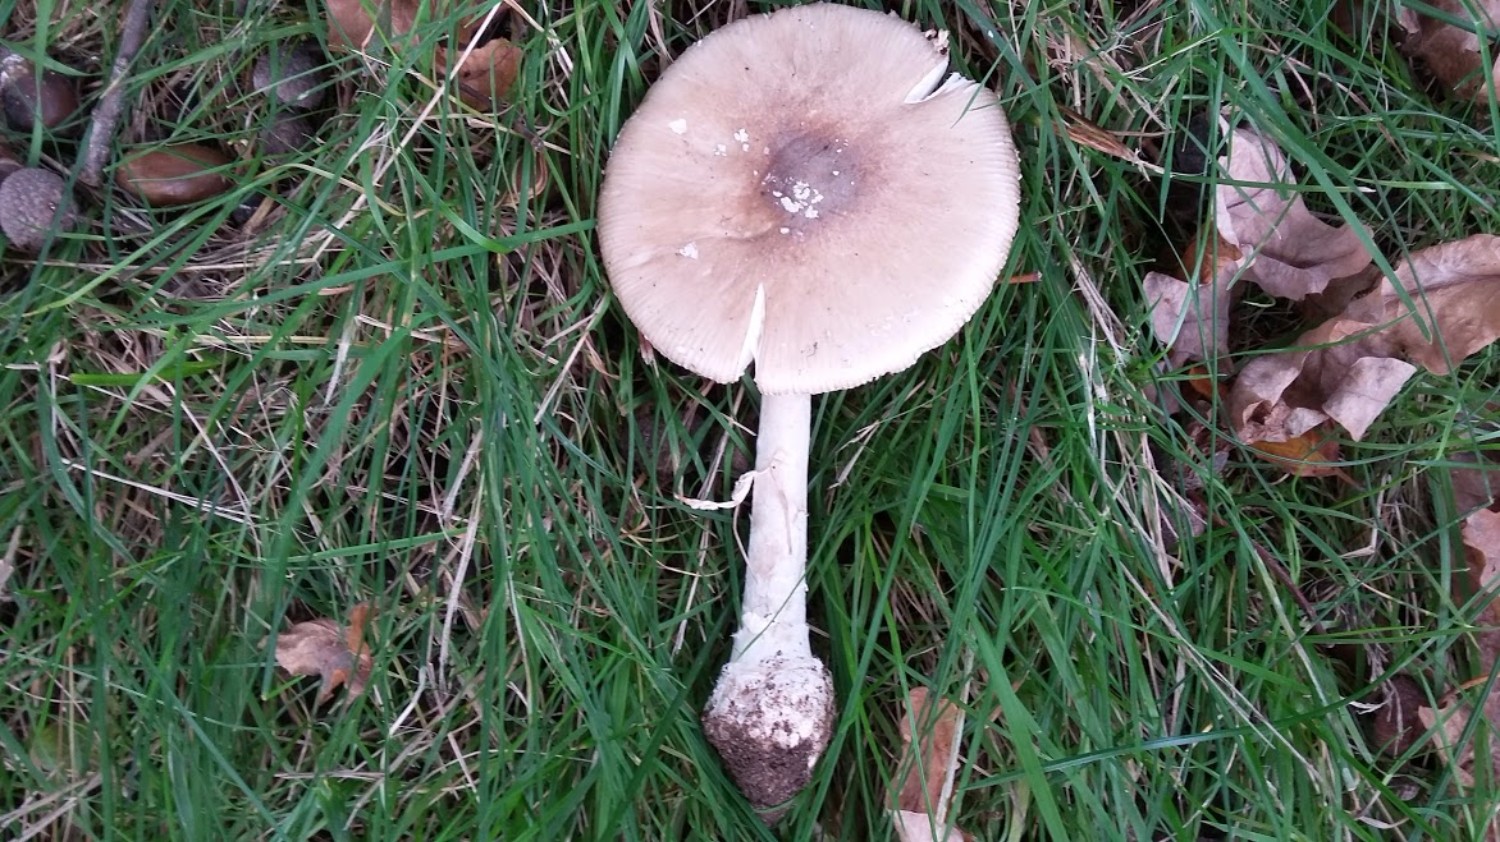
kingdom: Fungi
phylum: Basidiomycota
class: Agaricomycetes
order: Agaricales
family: Amanitaceae
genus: Amanita
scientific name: Amanita porphyria
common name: porfyr-fluesvamp
